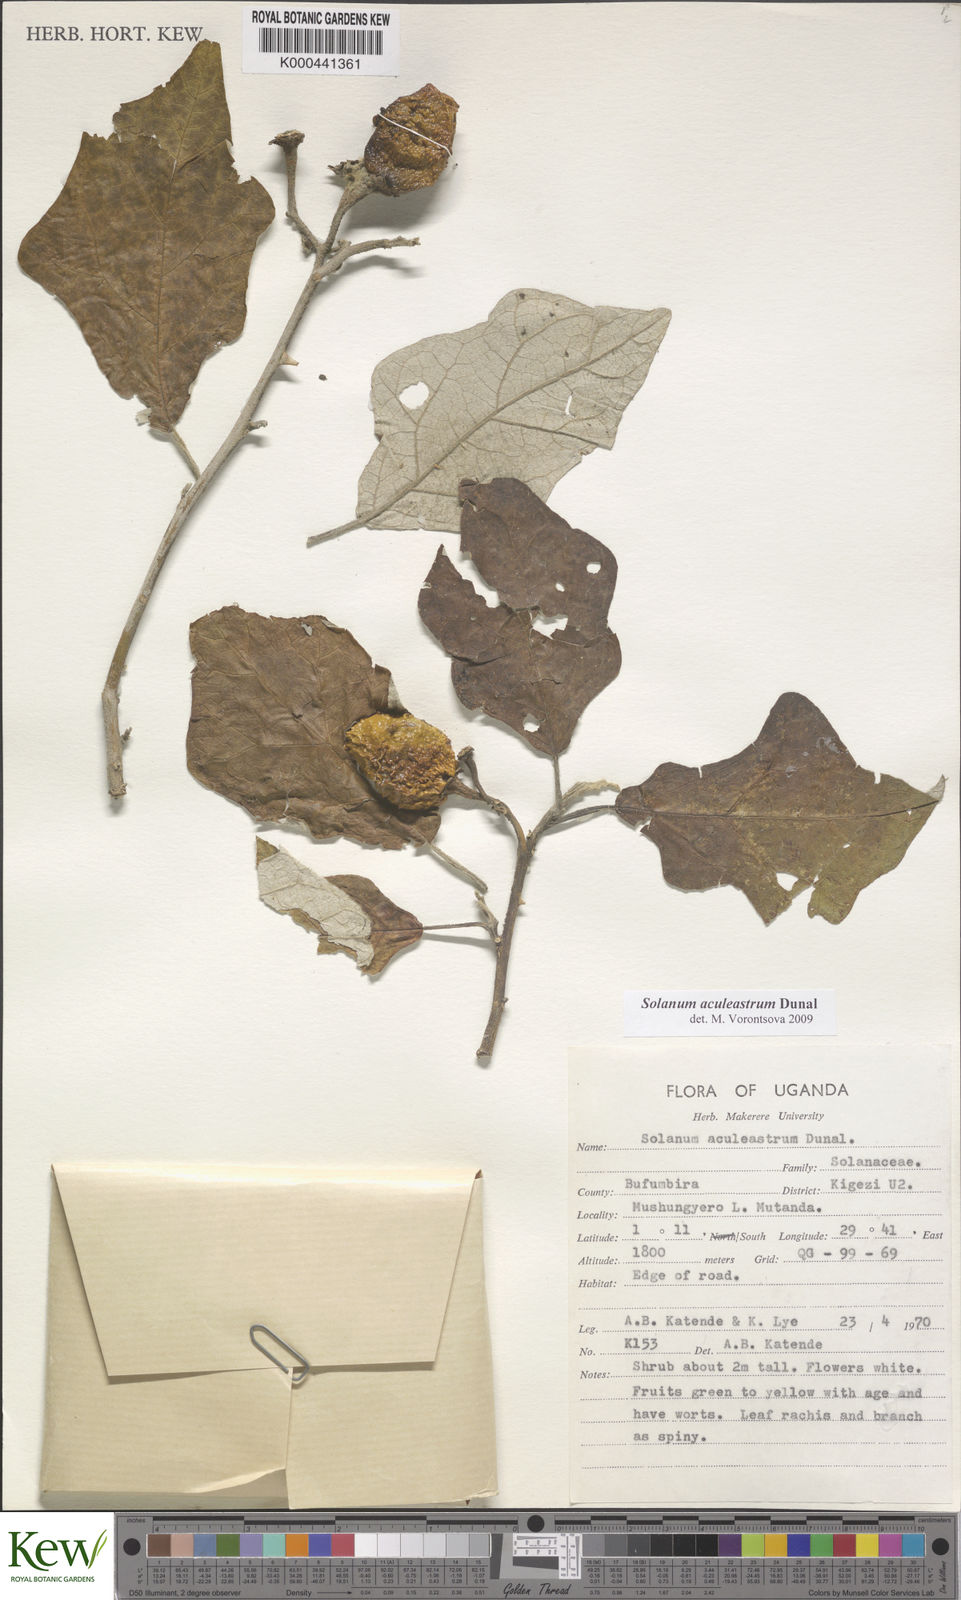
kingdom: Plantae
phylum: Tracheophyta
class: Magnoliopsida
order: Solanales
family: Solanaceae
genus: Solanum
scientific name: Solanum aculeastrum
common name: Goat bitter-apple
